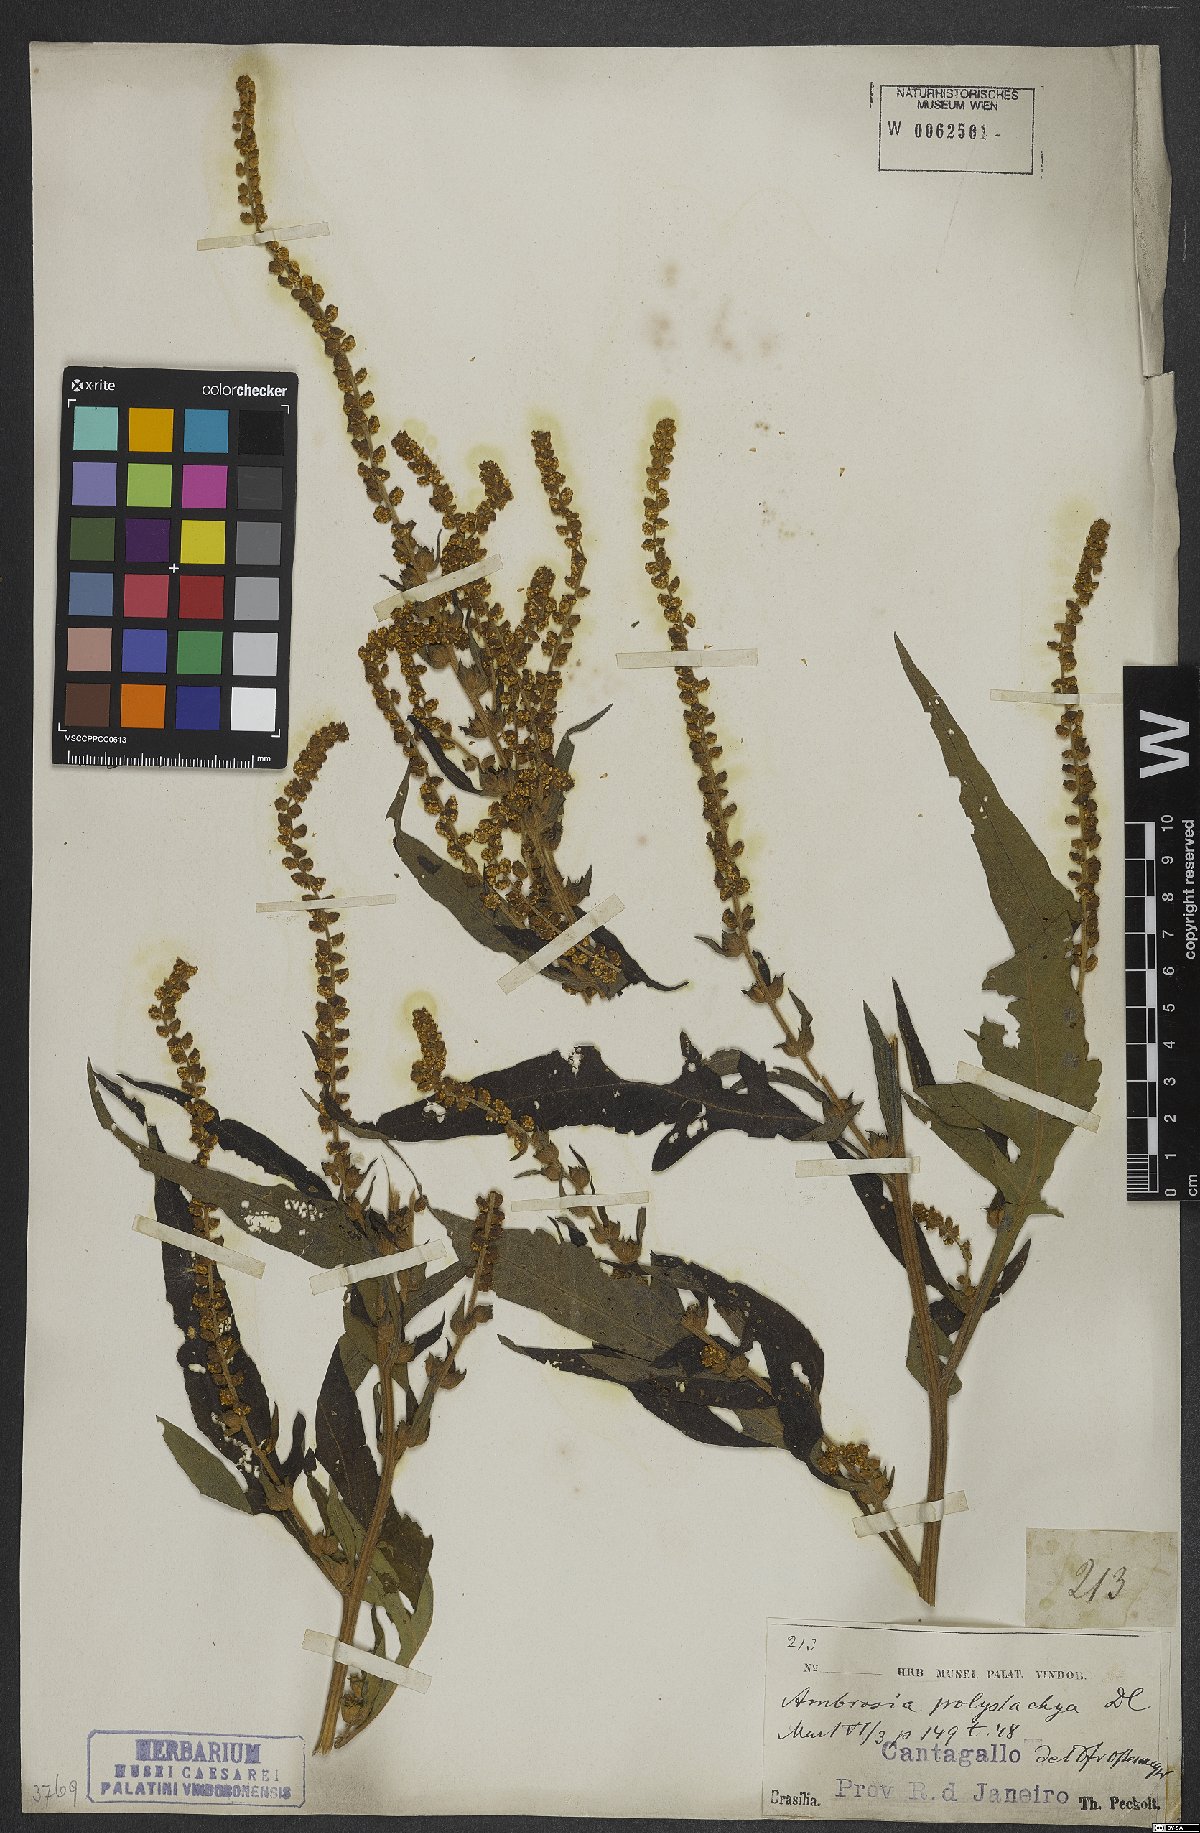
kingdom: Plantae
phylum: Tracheophyta
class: Magnoliopsida
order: Asterales
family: Asteraceae
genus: Ambrosia
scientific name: Ambrosia polystachya
